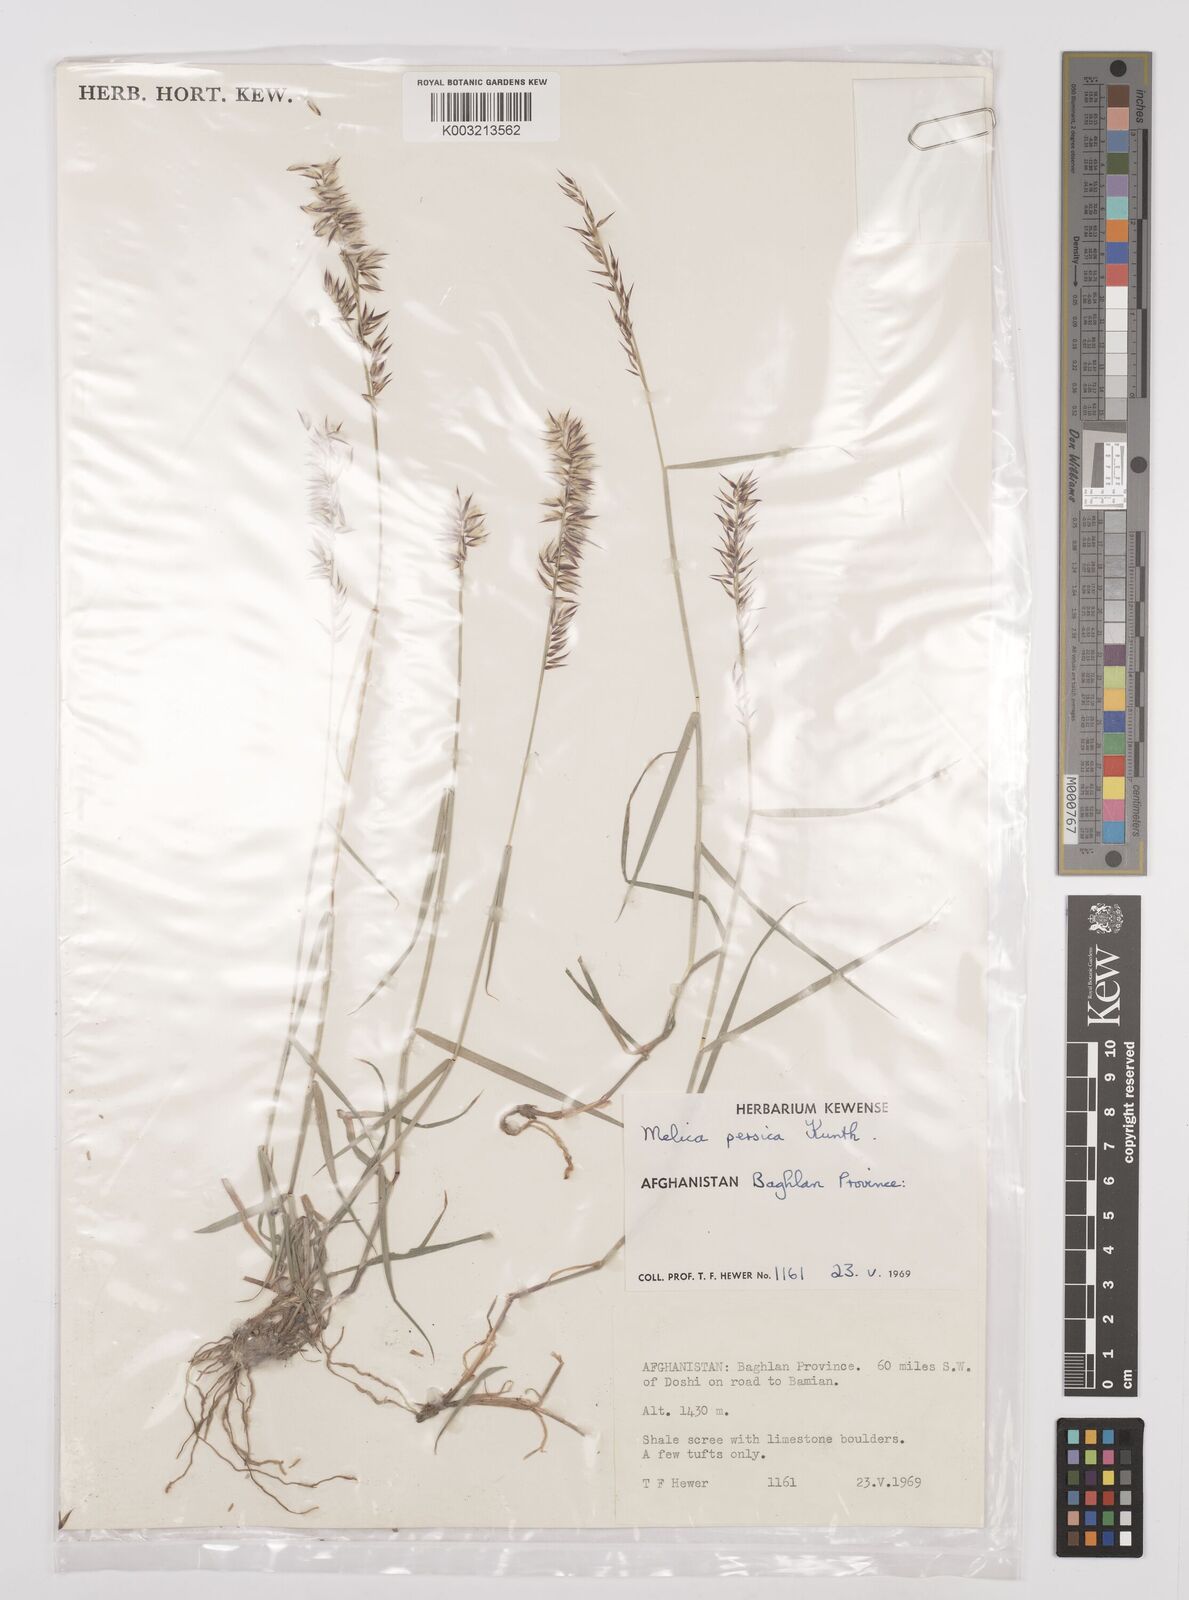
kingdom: Plantae
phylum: Tracheophyta
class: Liliopsida
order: Poales
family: Poaceae
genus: Melica
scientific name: Melica persica
